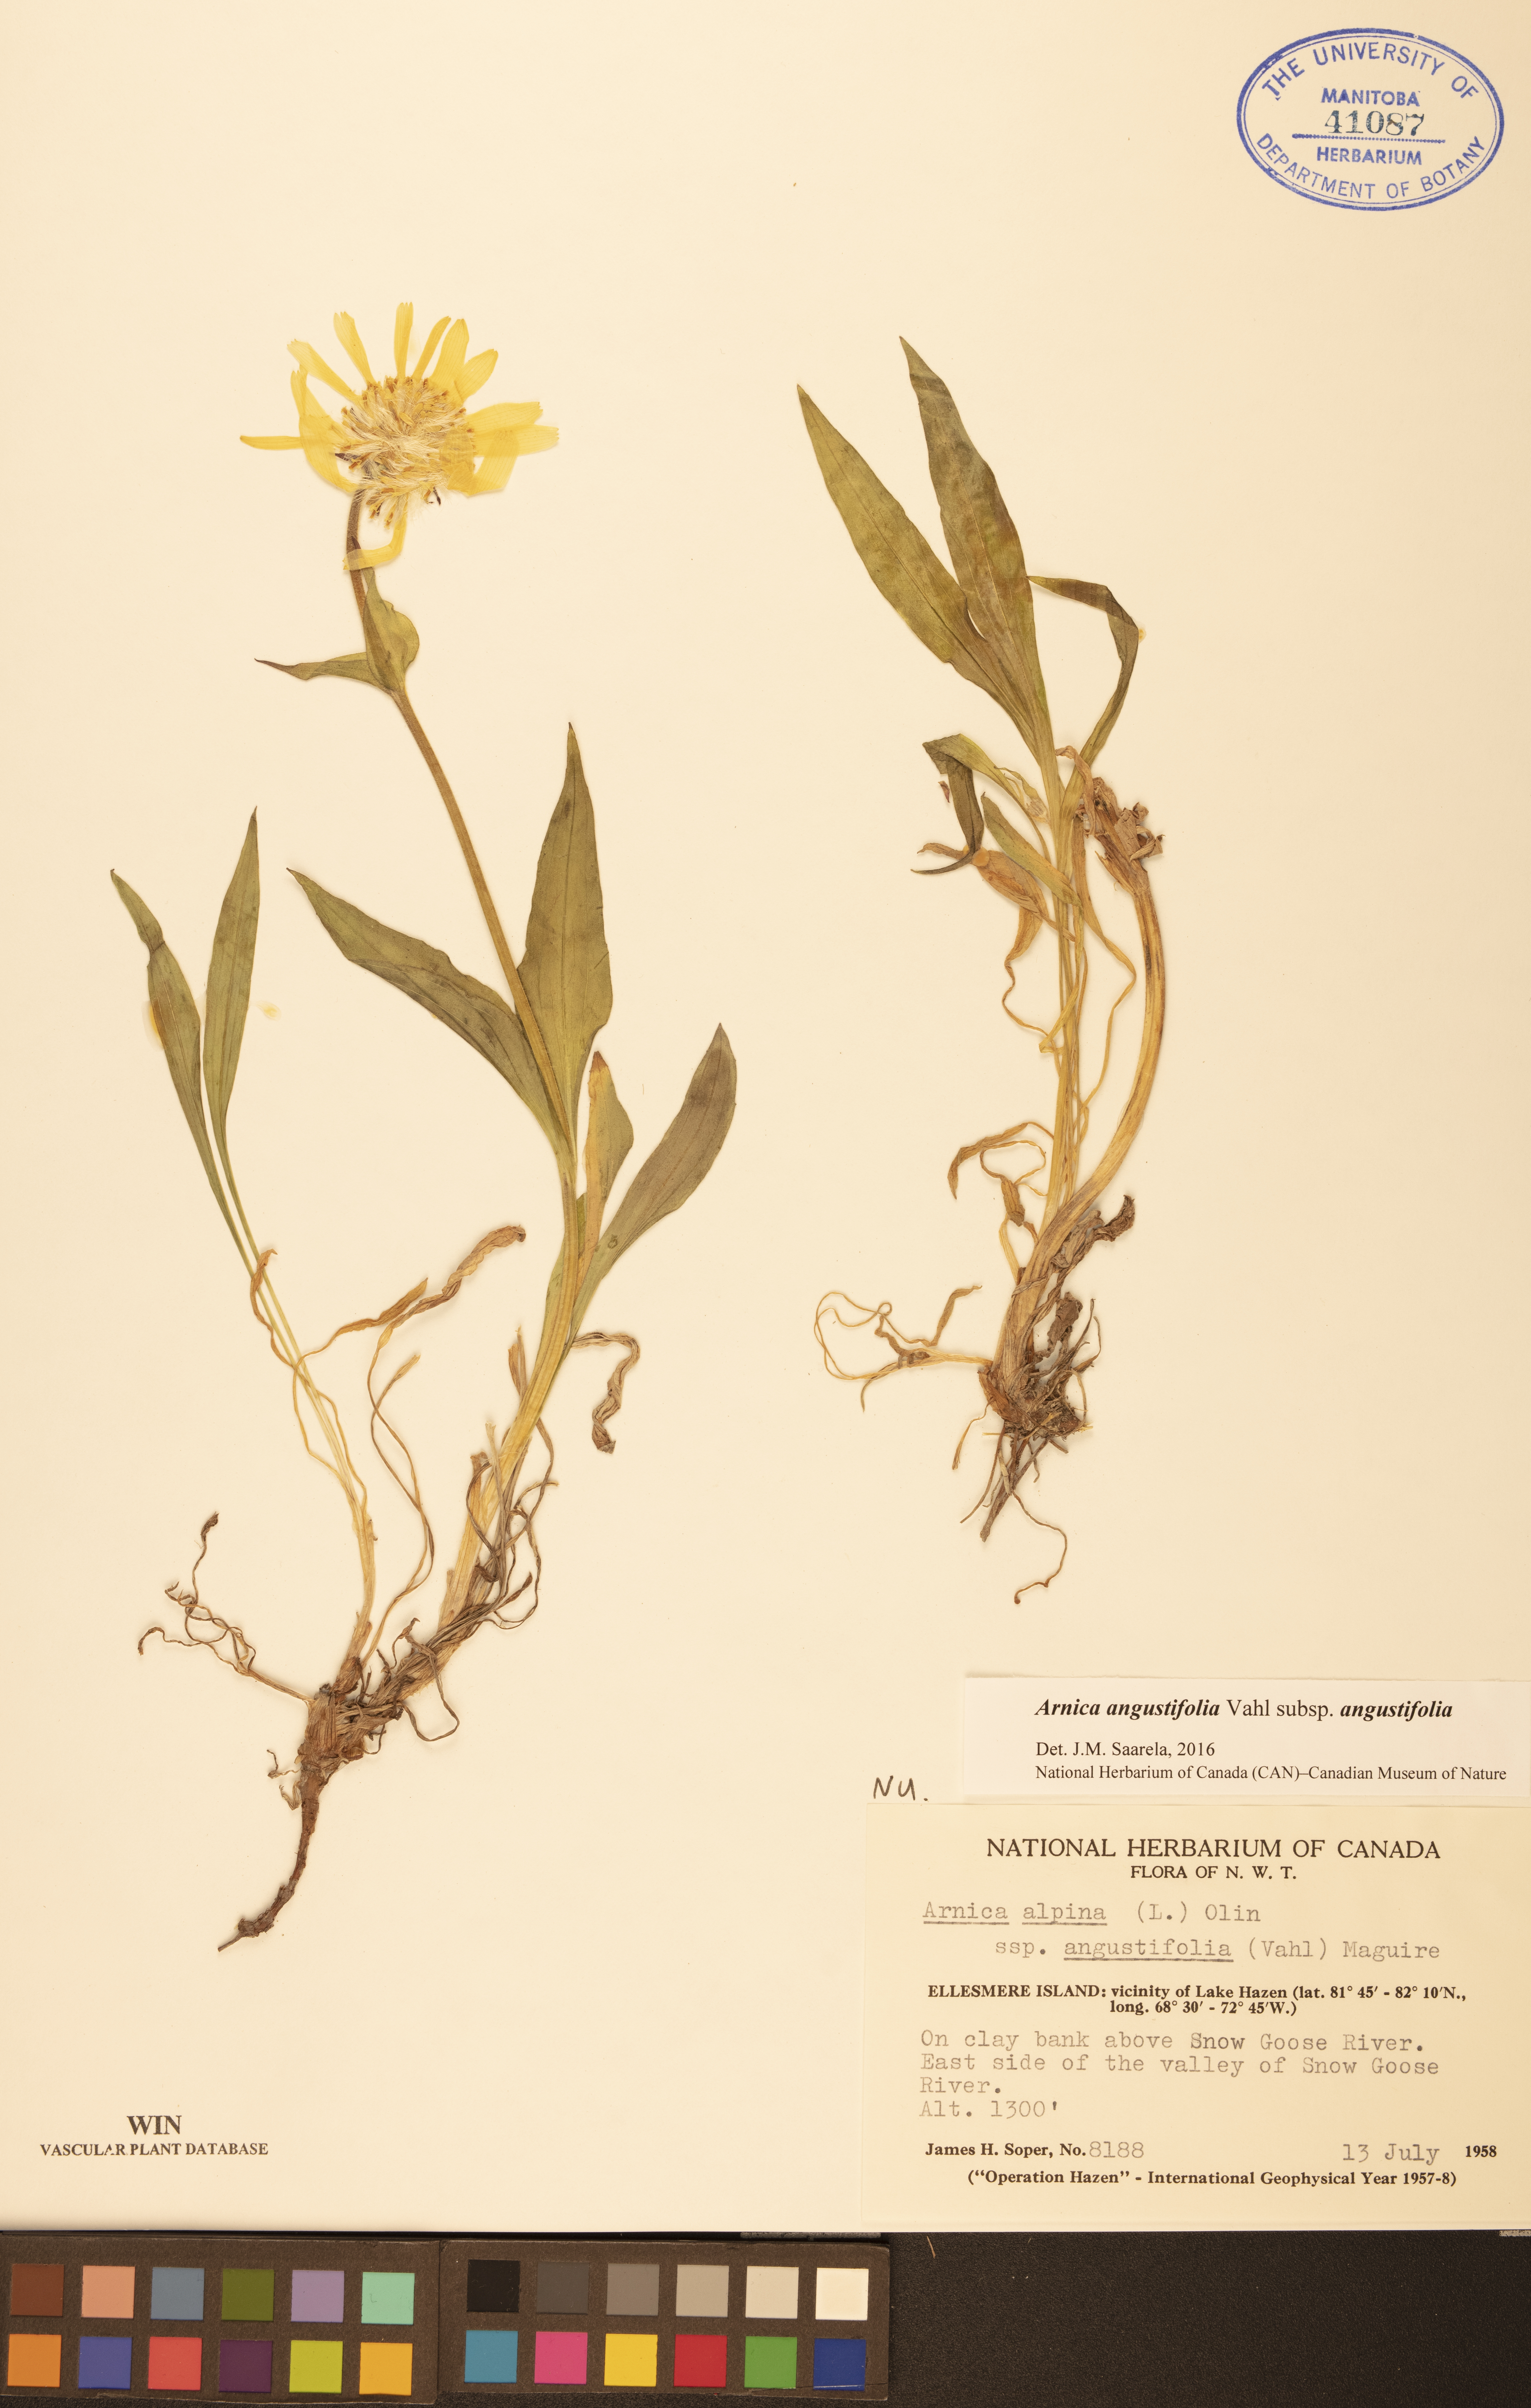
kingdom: Plantae
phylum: Tracheophyta
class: Magnoliopsida
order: Asterales
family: Asteraceae
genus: Arnica
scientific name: Arnica angustifolia
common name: Arctic arnica
